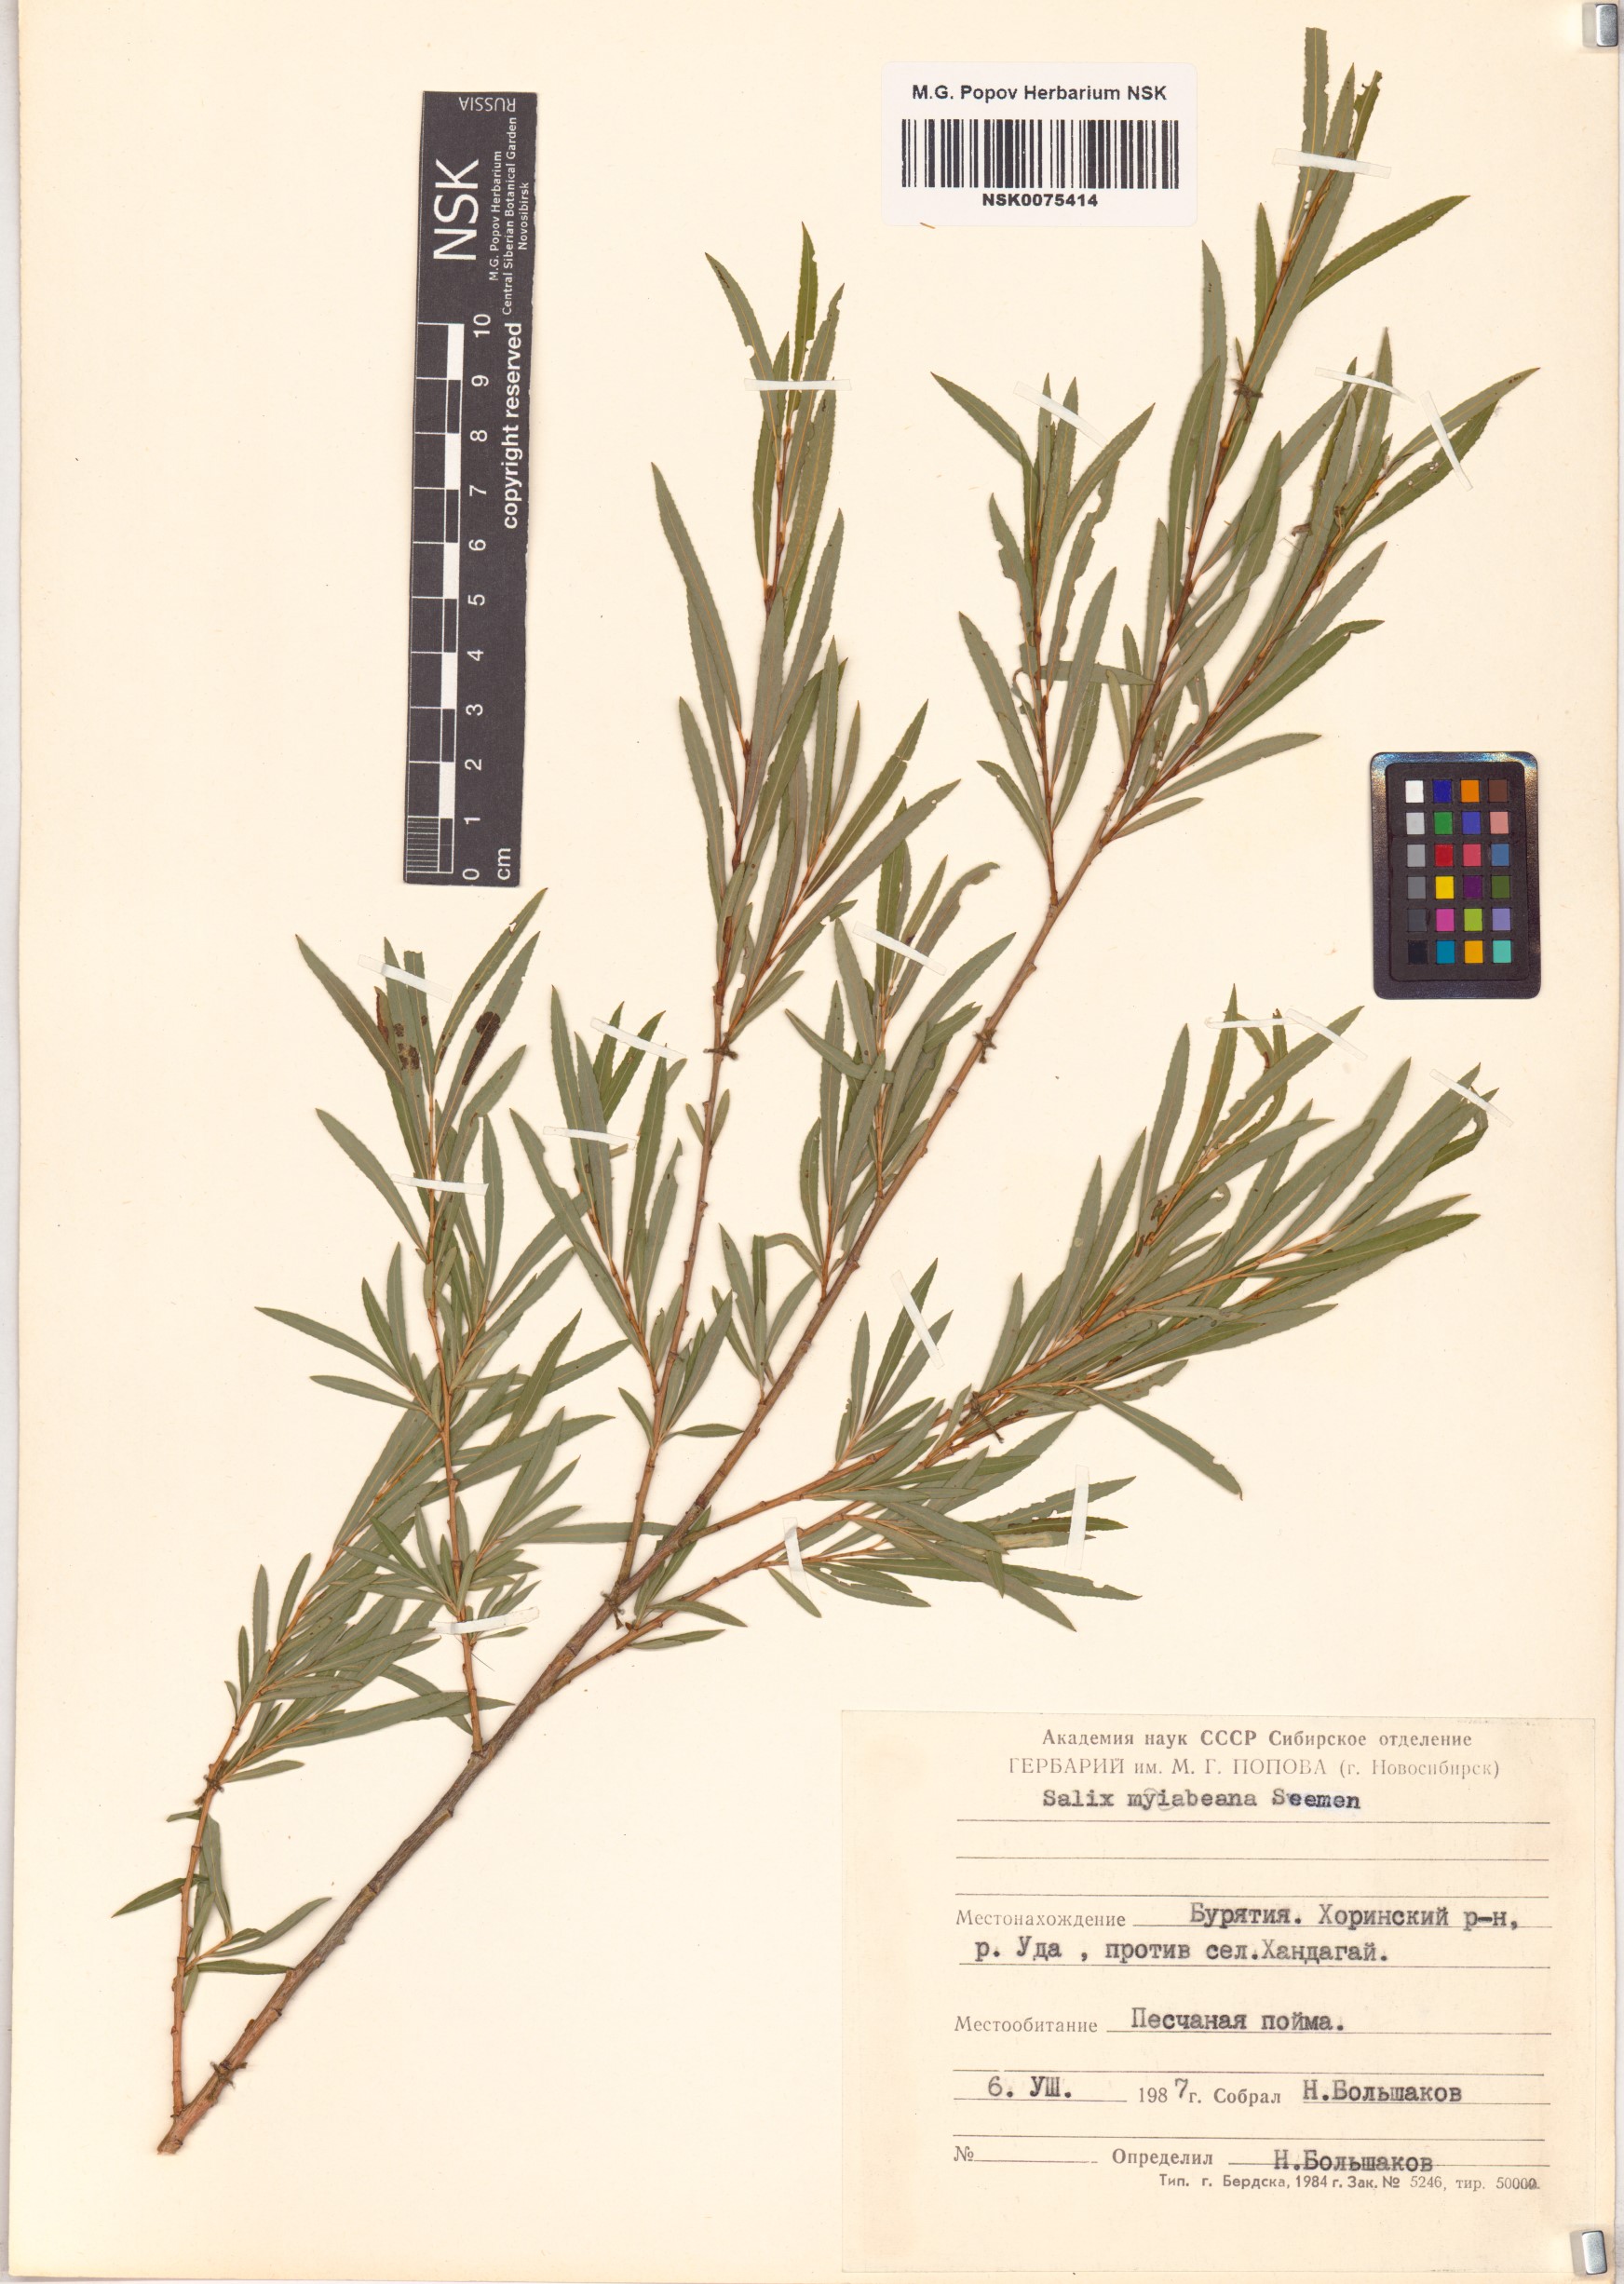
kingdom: Plantae
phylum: Tracheophyta
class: Magnoliopsida
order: Malpighiales
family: Salicaceae
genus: Salix
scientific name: Salix miyabeana
